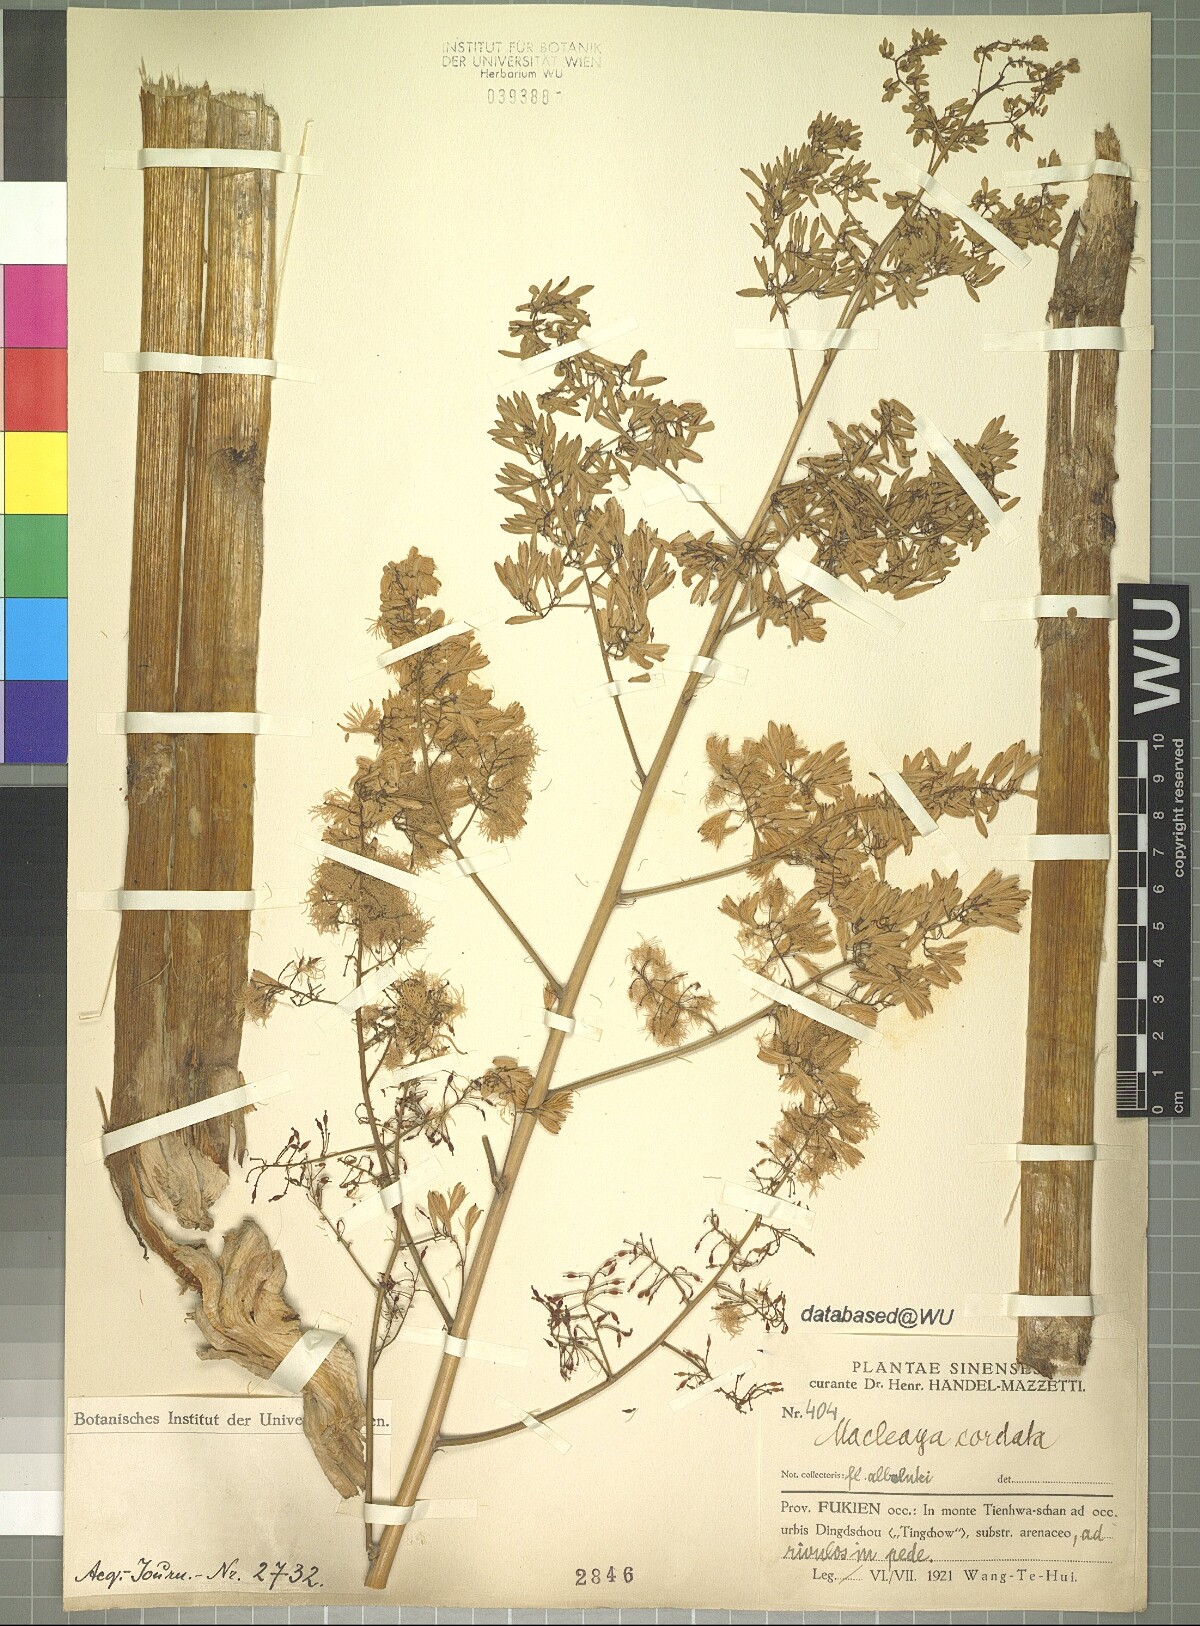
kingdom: Plantae
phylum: Tracheophyta
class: Magnoliopsida
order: Ranunculales
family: Papaveraceae
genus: Macleaya
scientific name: Macleaya cordata
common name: Plume poppy
